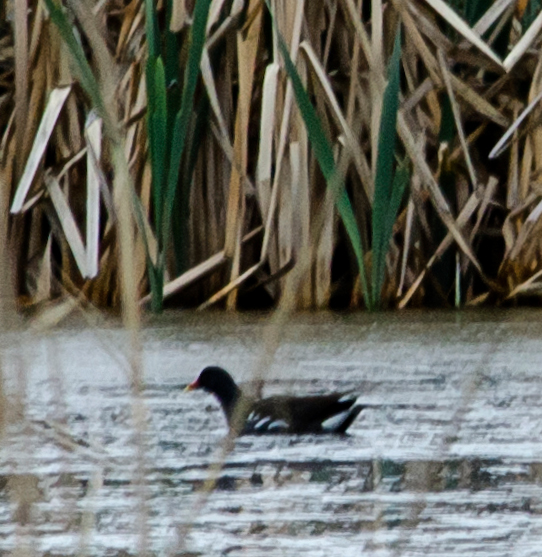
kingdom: Animalia
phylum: Chordata
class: Aves
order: Gruiformes
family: Rallidae
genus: Gallinula
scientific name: Gallinula chloropus
